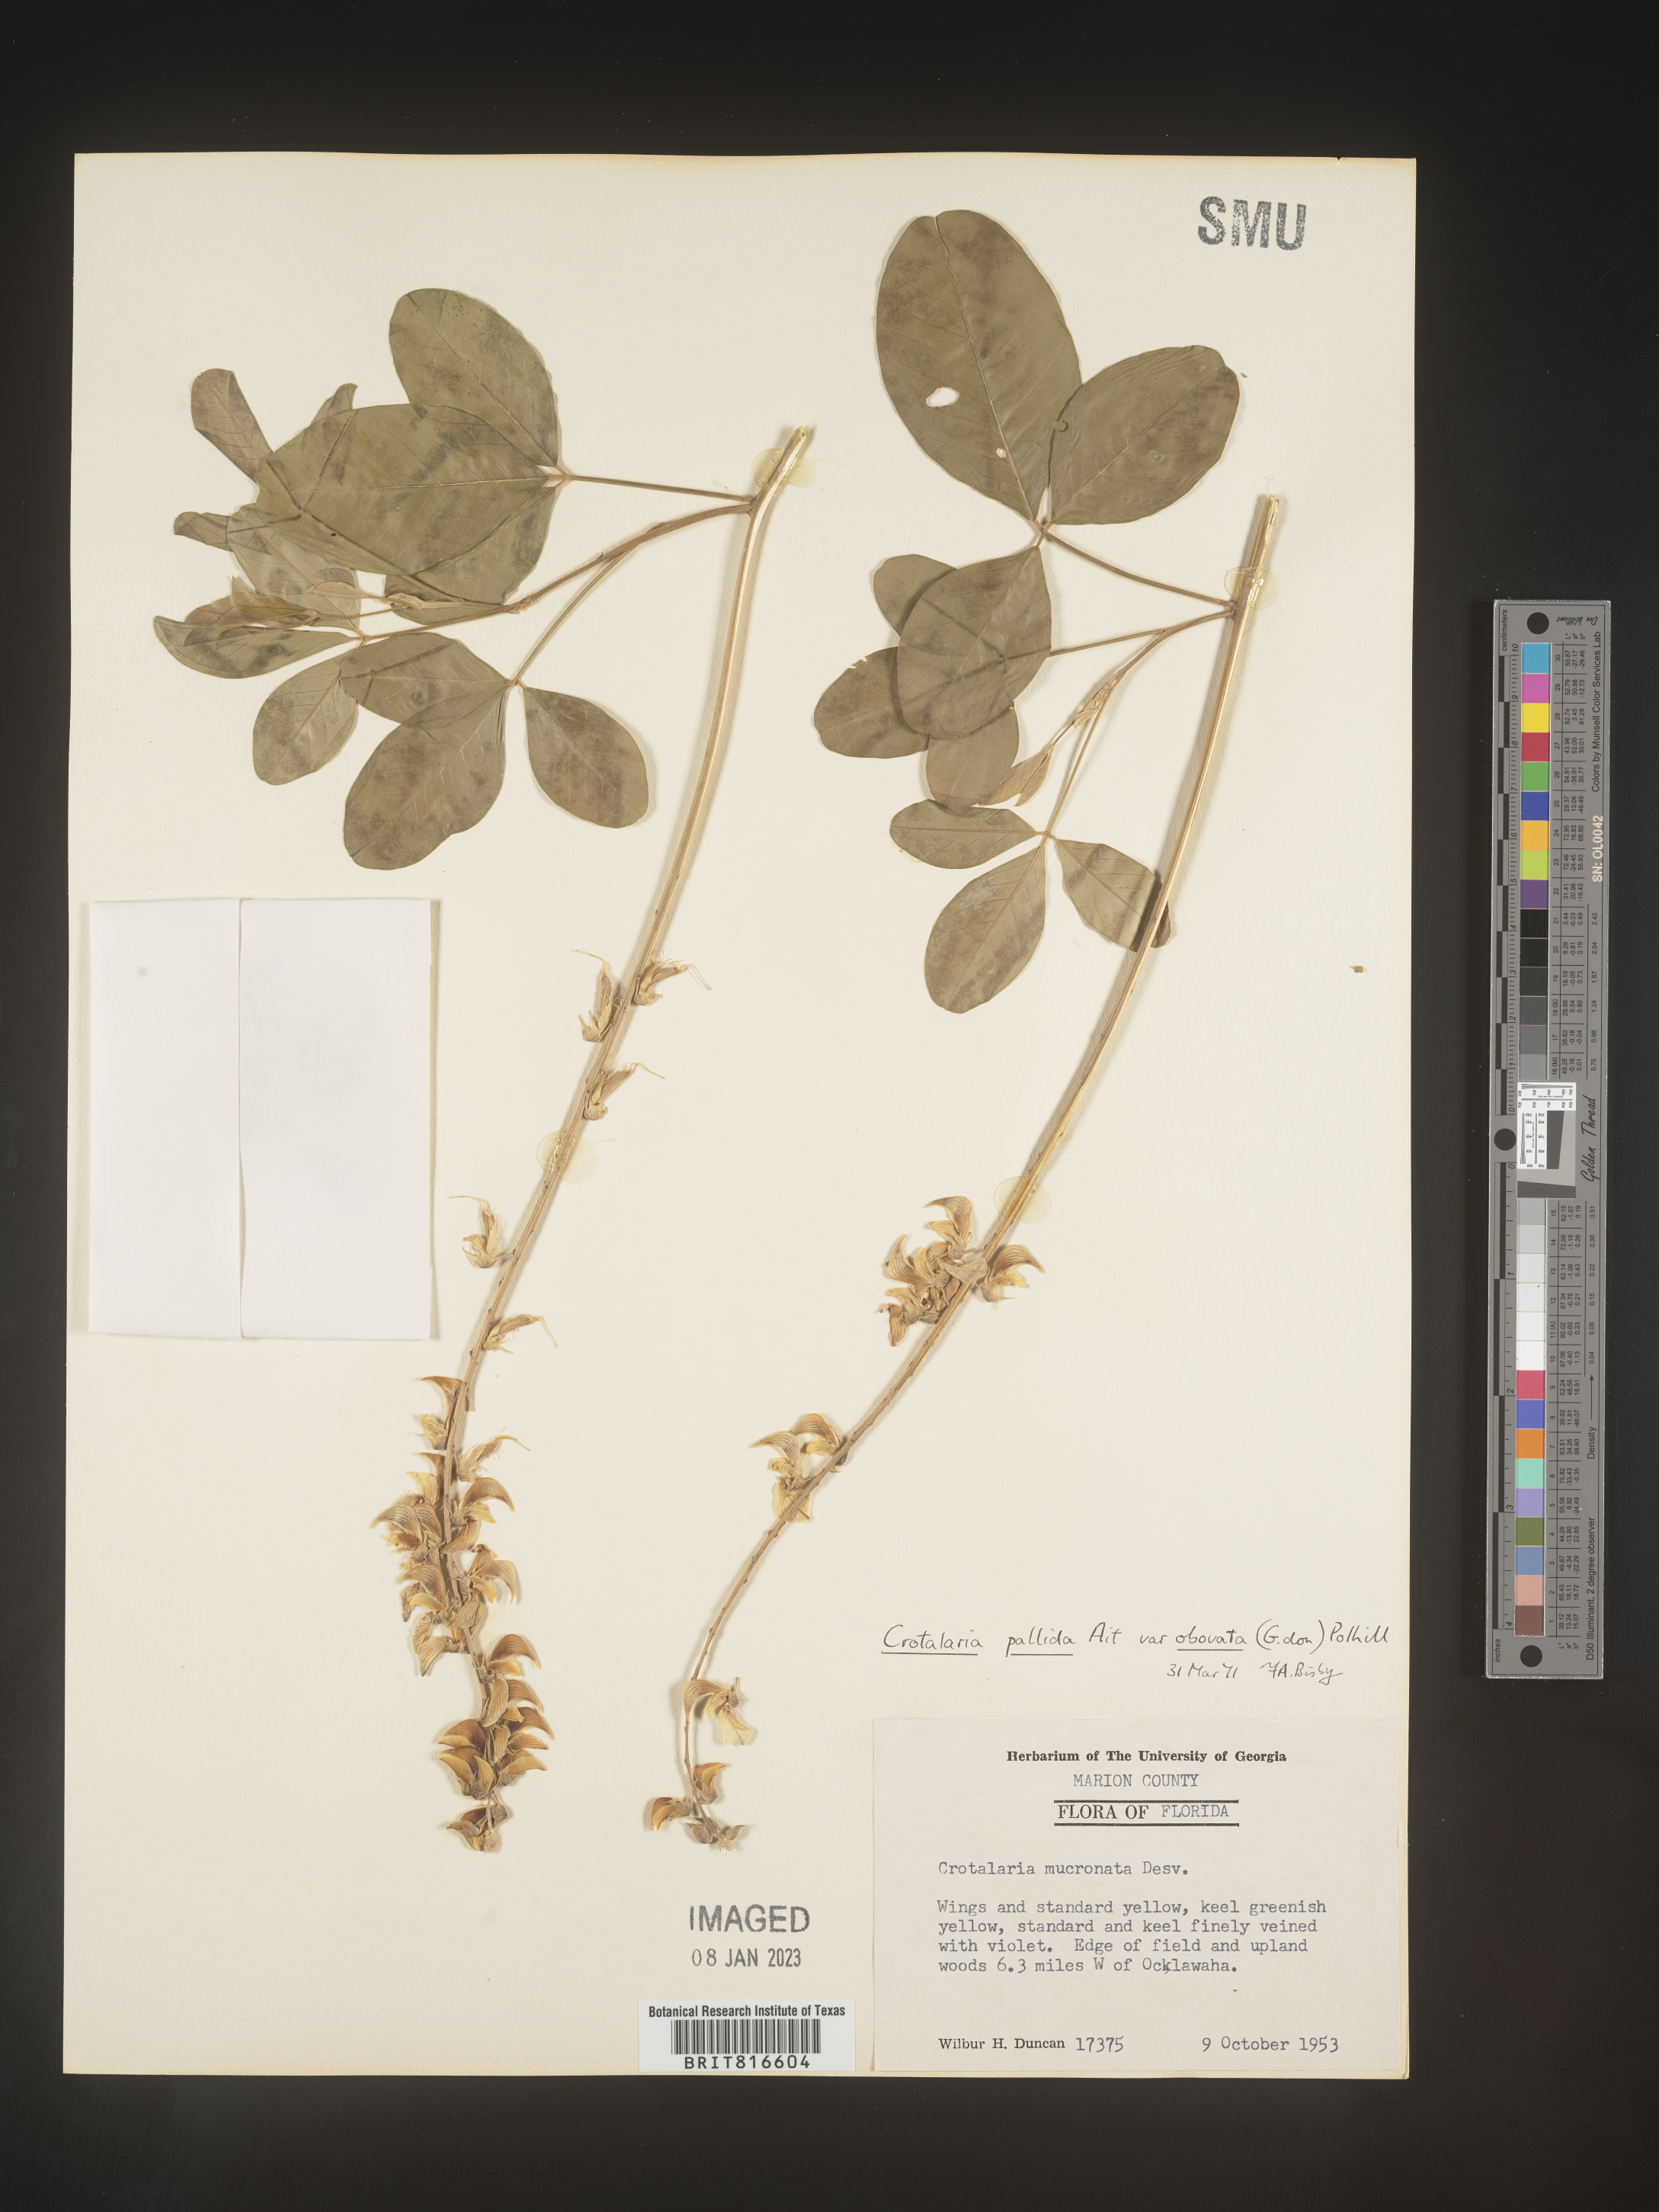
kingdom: Plantae
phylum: Tracheophyta
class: Magnoliopsida
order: Fabales
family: Fabaceae
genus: Crotalaria
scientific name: Crotalaria linifolia
